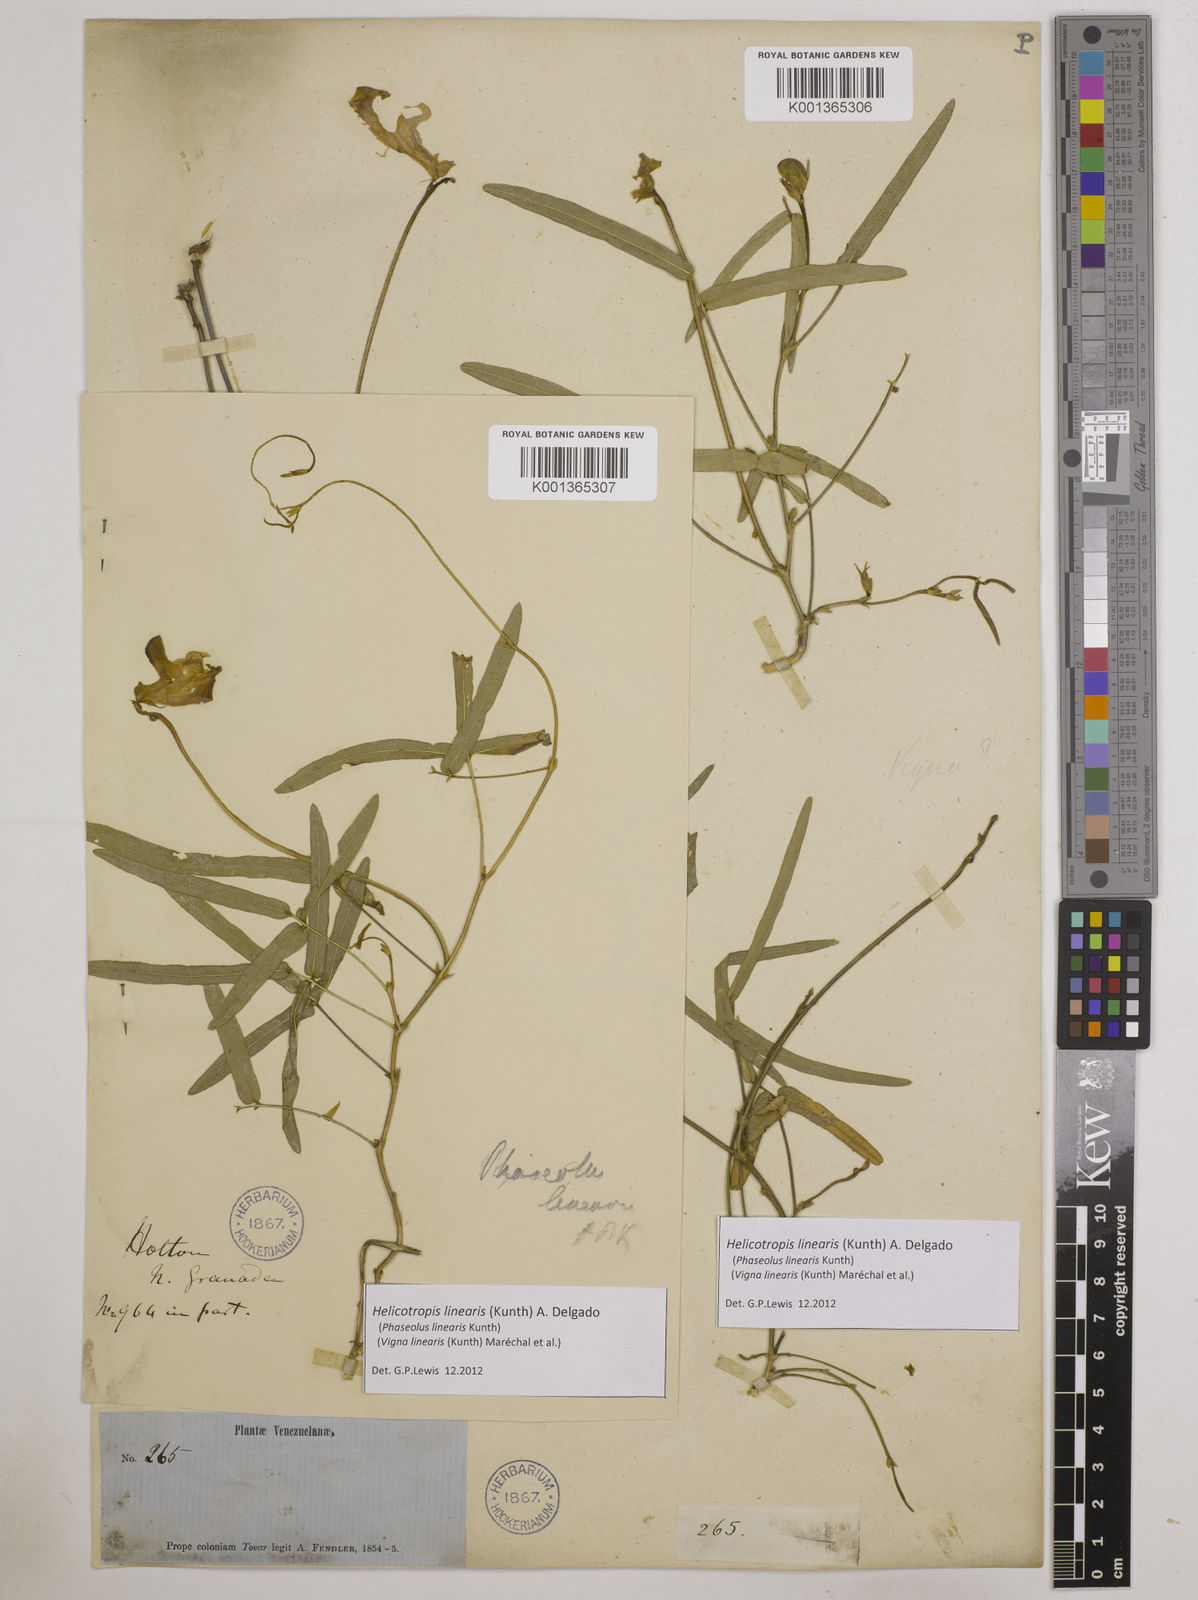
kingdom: Plantae
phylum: Tracheophyta
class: Magnoliopsida
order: Fabales
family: Fabaceae
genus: Helicotropis
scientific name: Helicotropis linearis
